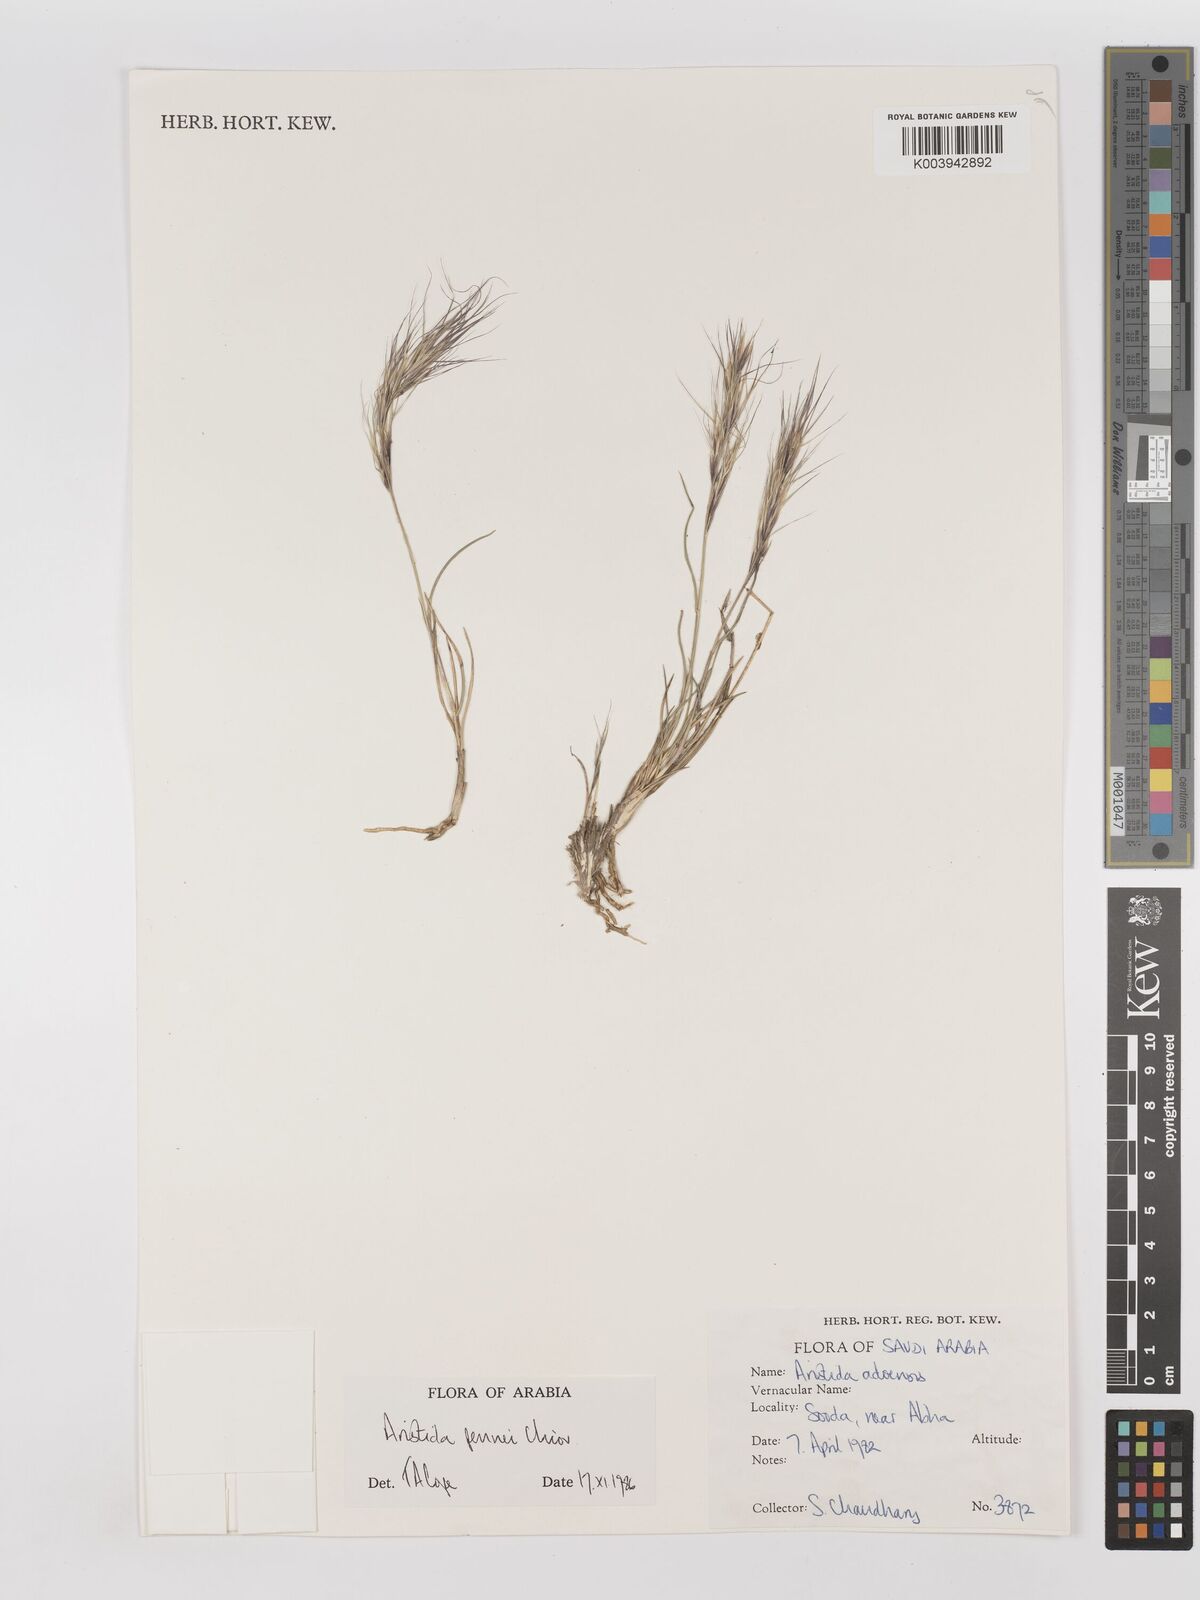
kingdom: Plantae
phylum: Tracheophyta
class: Liliopsida
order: Poales
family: Poaceae
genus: Aristida
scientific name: Aristida pennei
